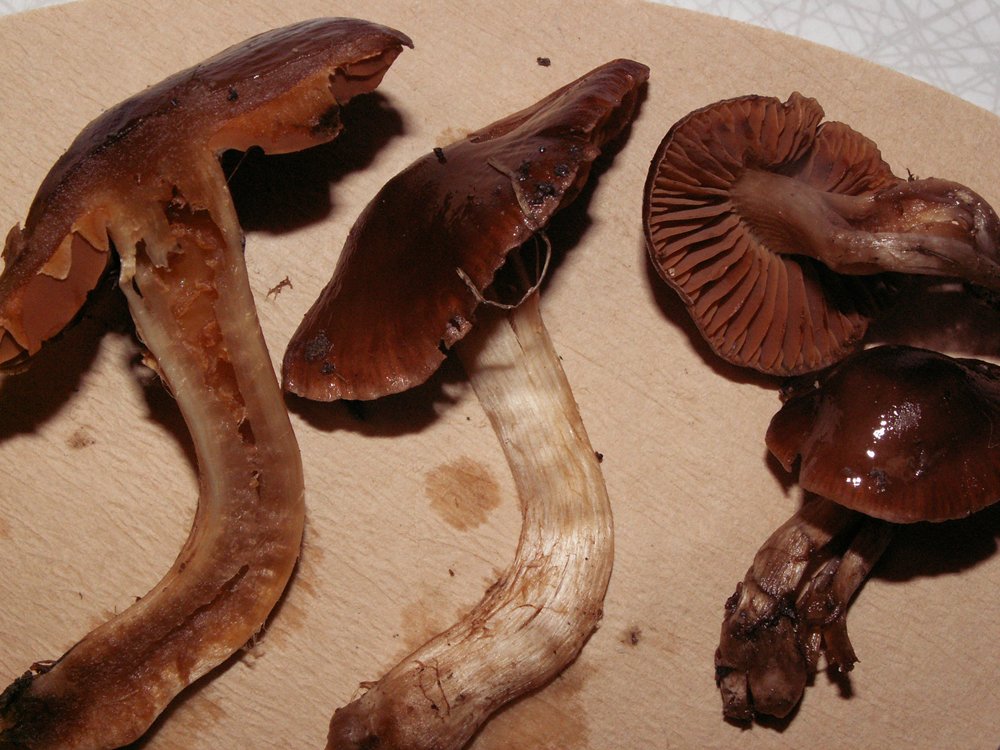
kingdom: Fungi
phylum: Basidiomycota
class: Agaricomycetes
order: Agaricales
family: Cortinariaceae
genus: Cortinarius
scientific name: Cortinarius phaeosmus
